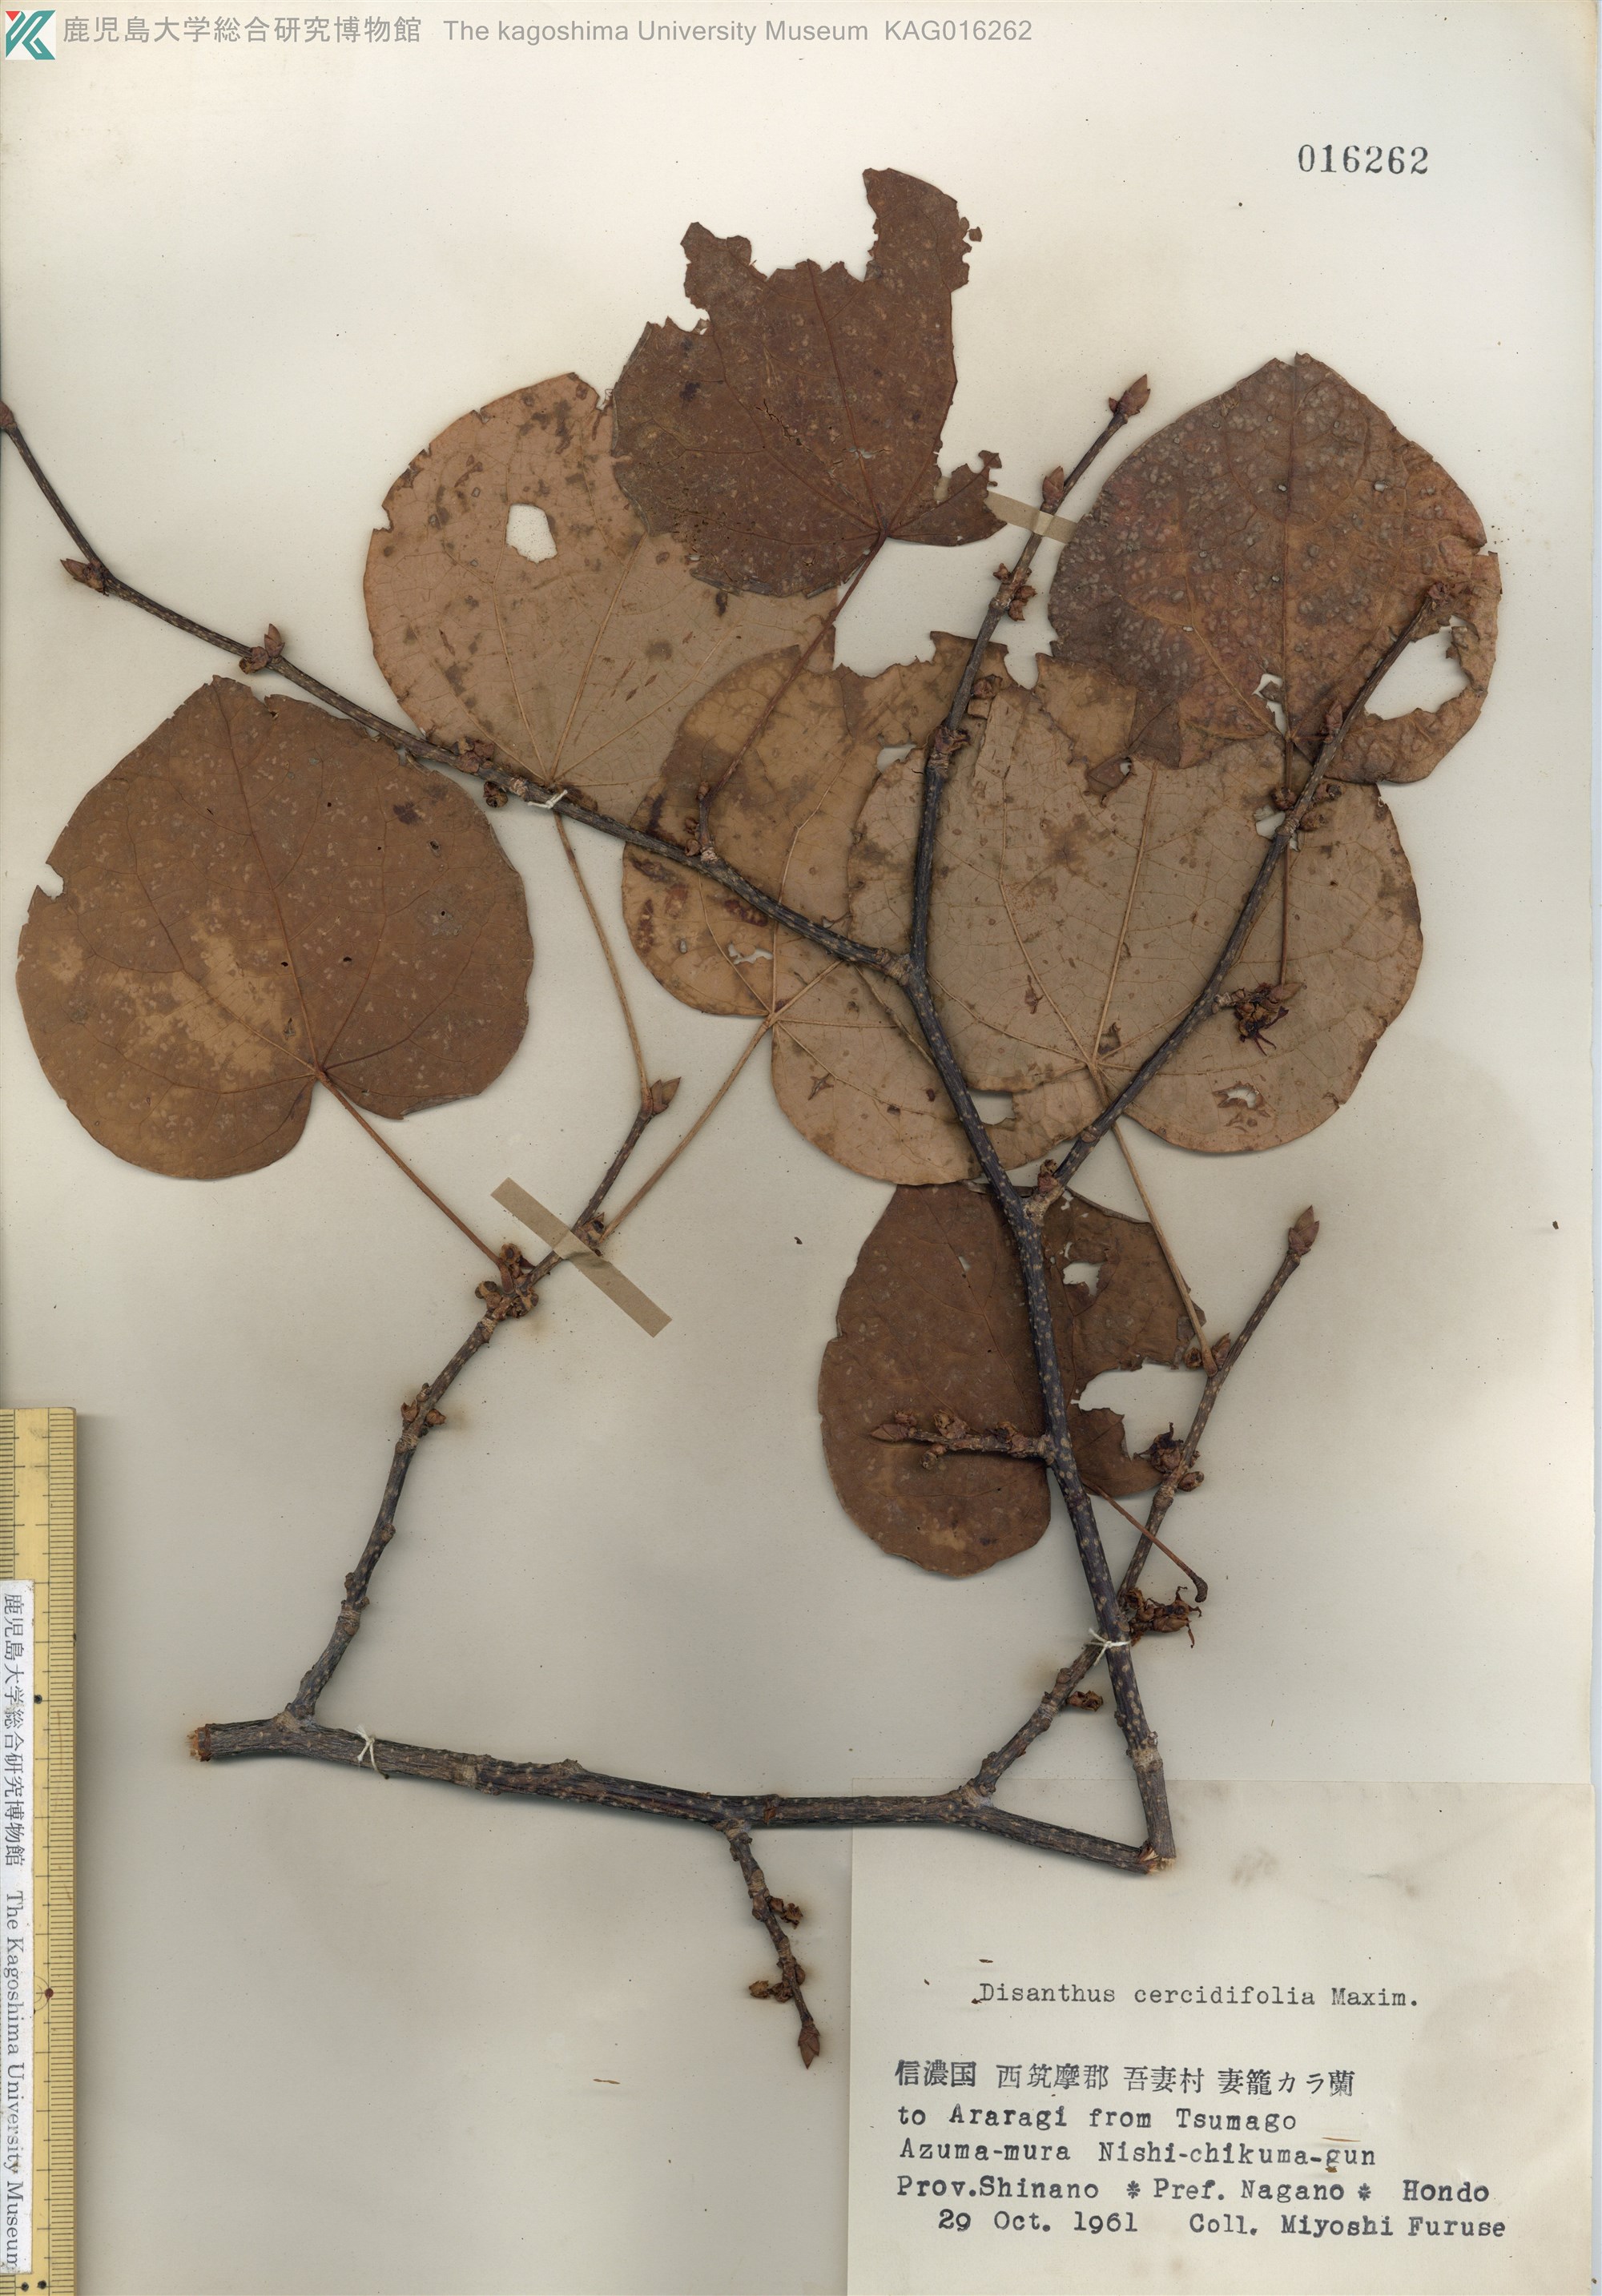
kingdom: Plantae
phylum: Tracheophyta
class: Magnoliopsida
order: Saxifragales
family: Hamamelidaceae
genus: Disanthus
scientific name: Disanthus cercidifolius
